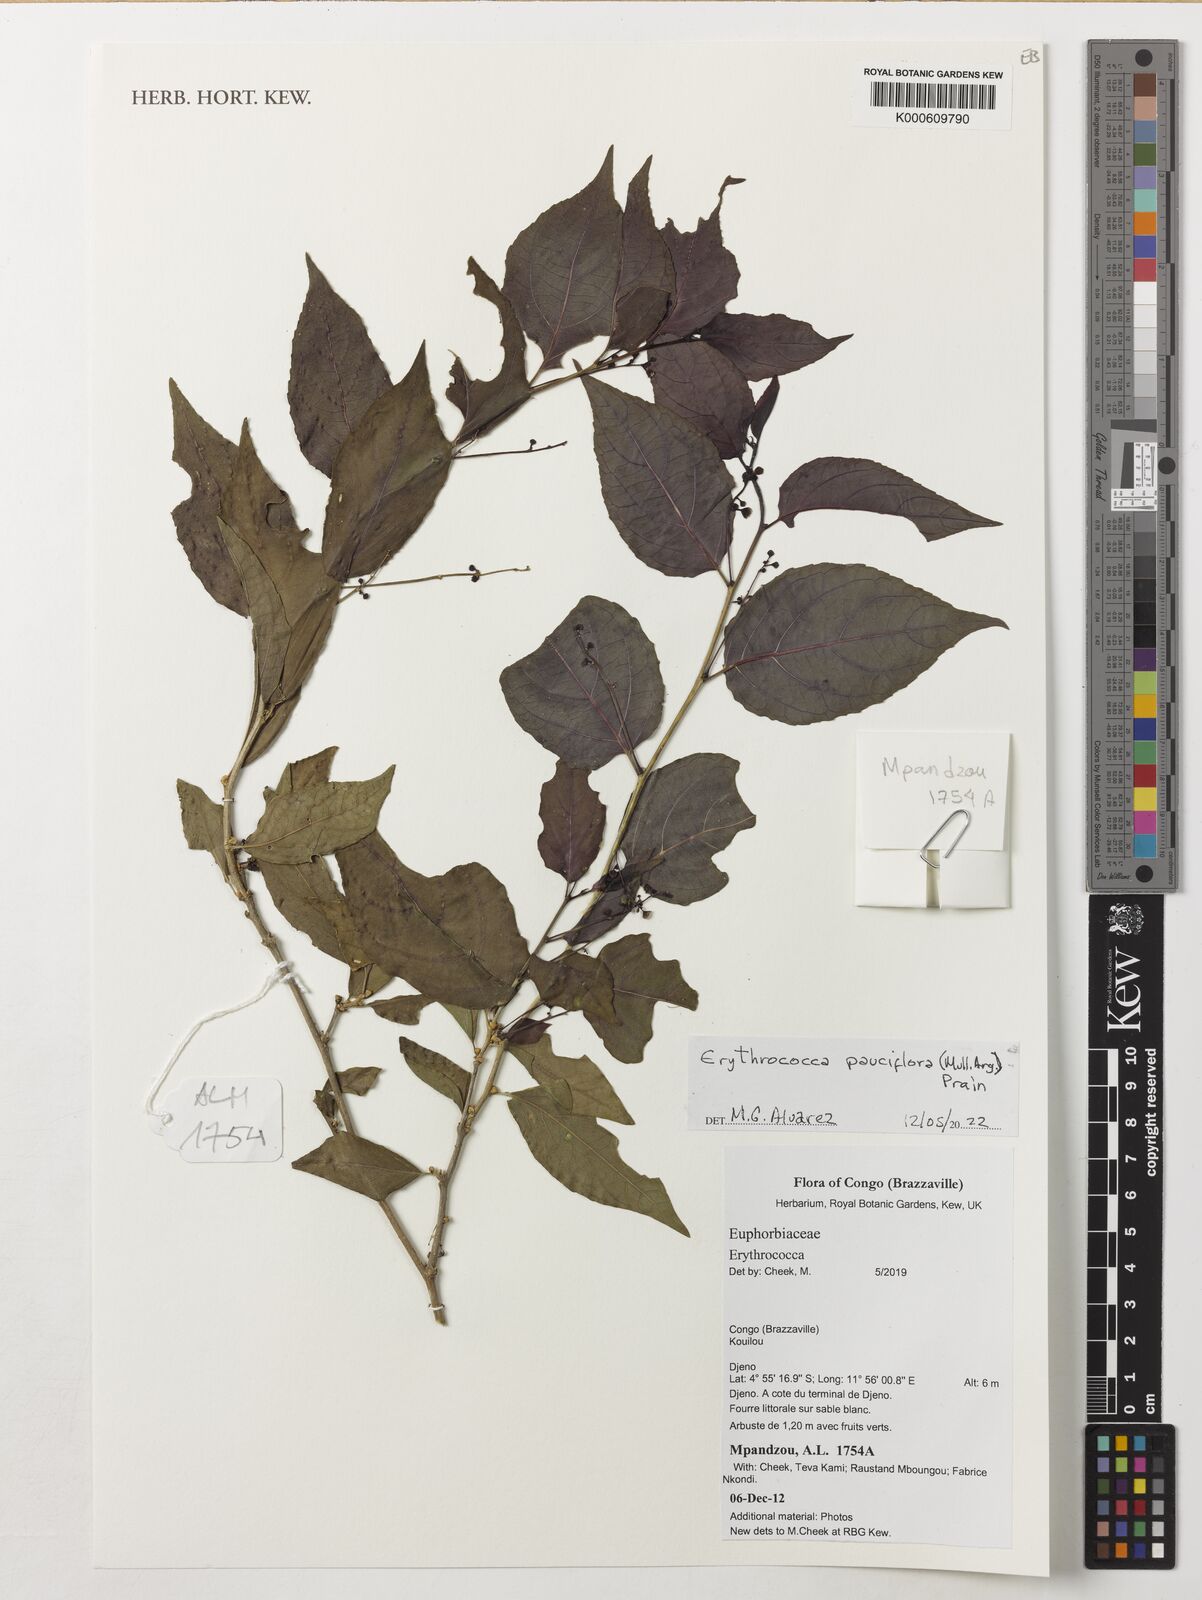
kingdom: Plantae
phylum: Tracheophyta
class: Magnoliopsida
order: Malpighiales
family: Euphorbiaceae
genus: Erythrococca
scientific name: Erythrococca pauciflora
